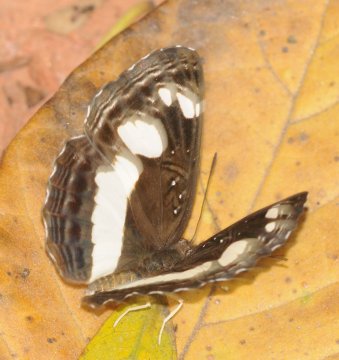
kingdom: Animalia
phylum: Arthropoda
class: Insecta
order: Lepidoptera
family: Nymphalidae
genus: Neptis
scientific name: Neptis saclava
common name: Spotted Sailer
